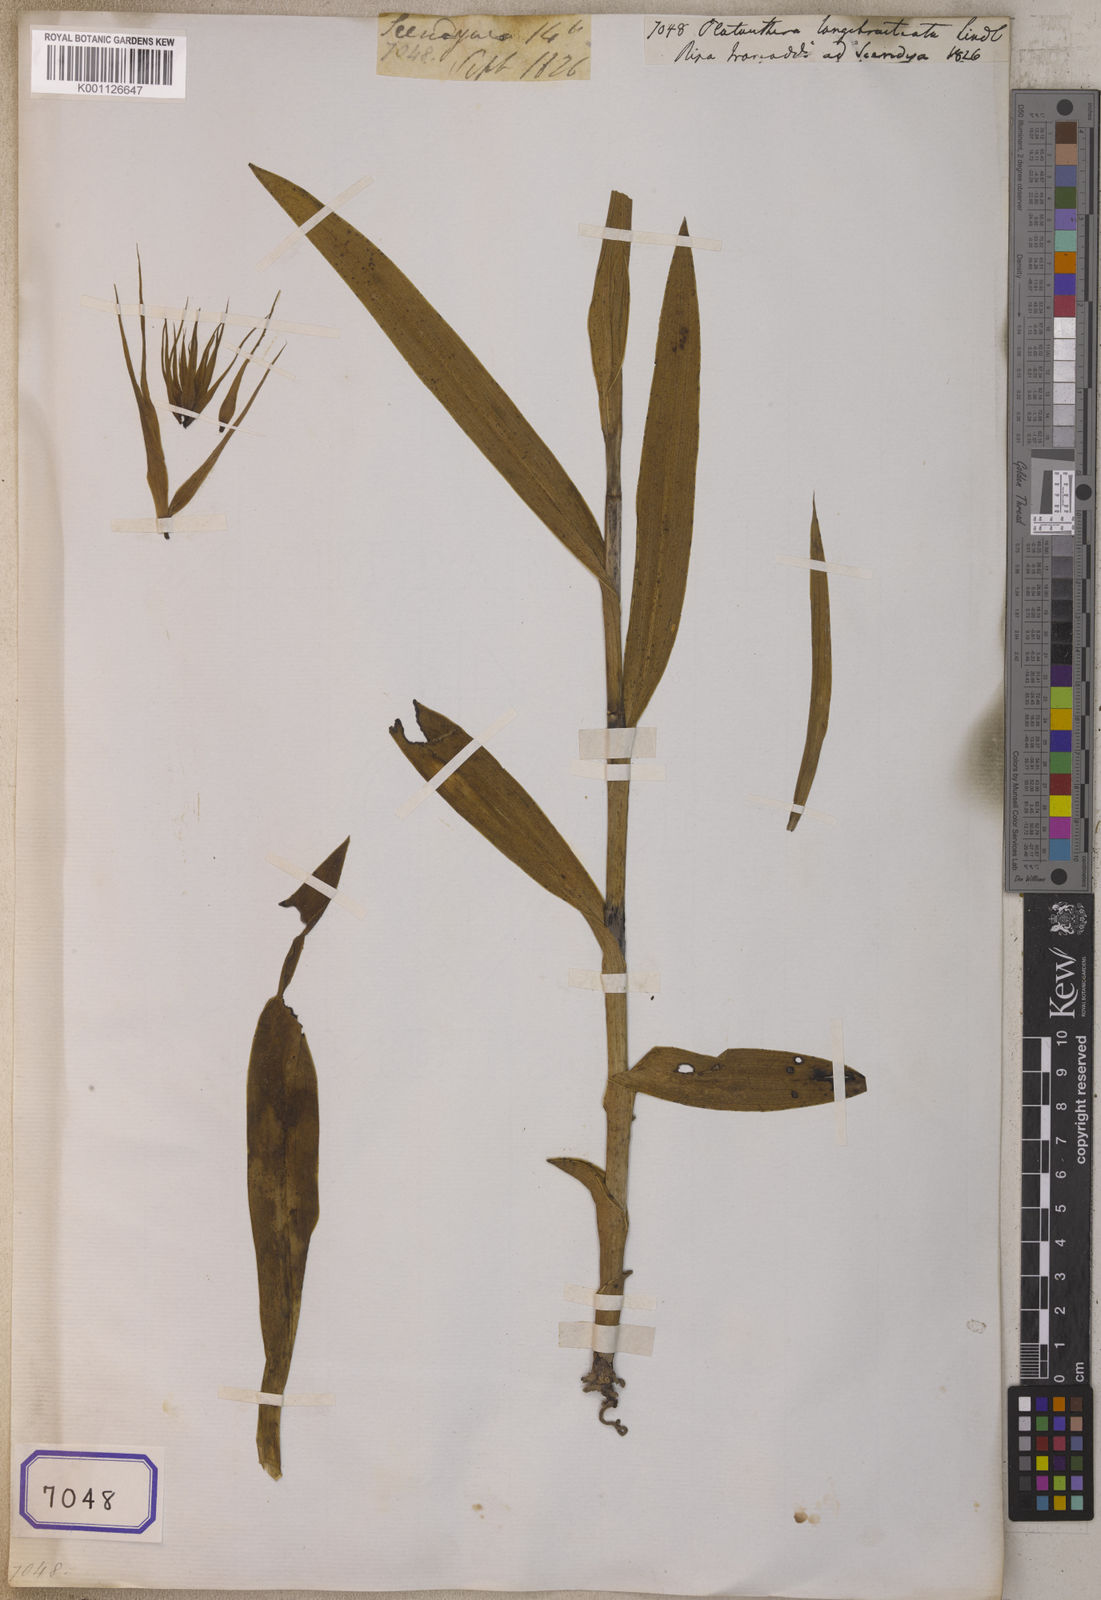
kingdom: Plantae
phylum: Tracheophyta
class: Liliopsida
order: Asparagales
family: Orchidaceae
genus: Platanthera
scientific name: Platanthera longibracteata
